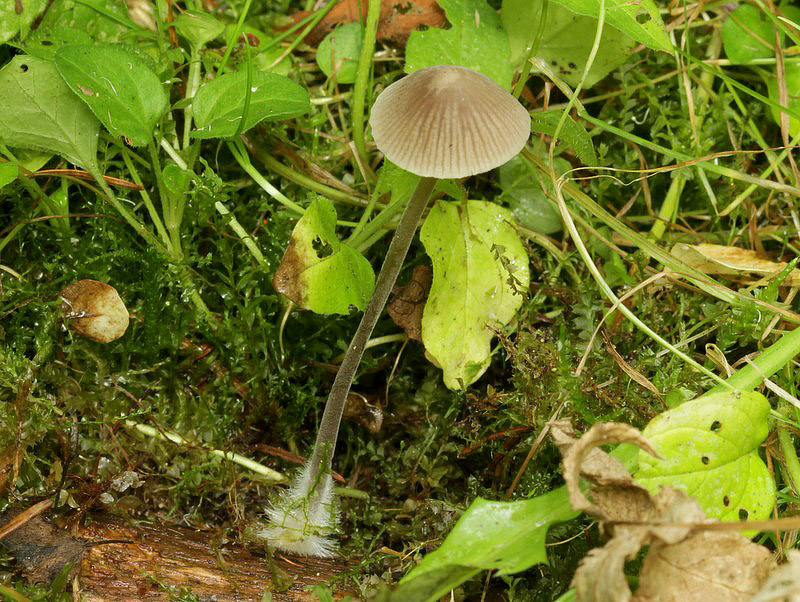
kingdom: Fungi
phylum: Basidiomycota
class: Agaricomycetes
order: Agaricales
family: Mycenaceae
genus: Mycena
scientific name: Mycena leptocephala
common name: klor-huesvamp
